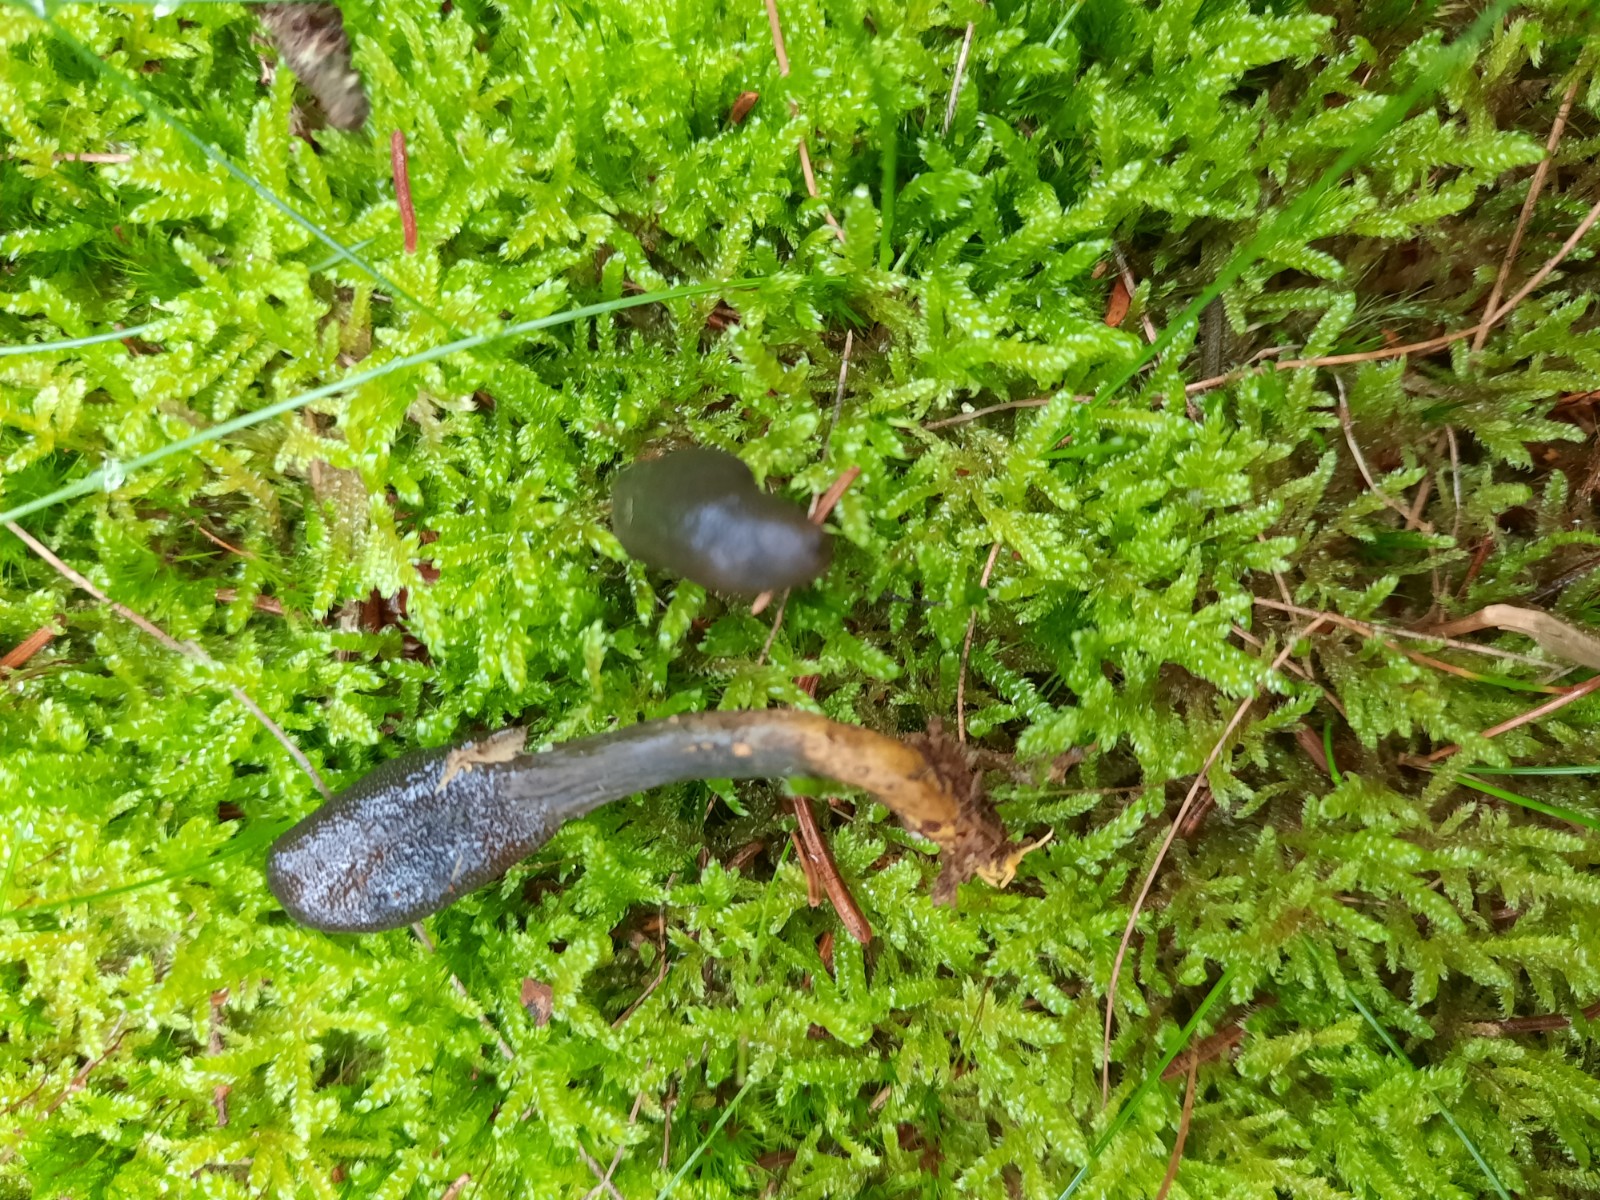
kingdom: Fungi
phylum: Ascomycota
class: Sordariomycetes
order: Hypocreales
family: Ophiocordycipitaceae
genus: Tolypocladium
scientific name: Tolypocladium ophioglossoides
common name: slank snyltekølle
